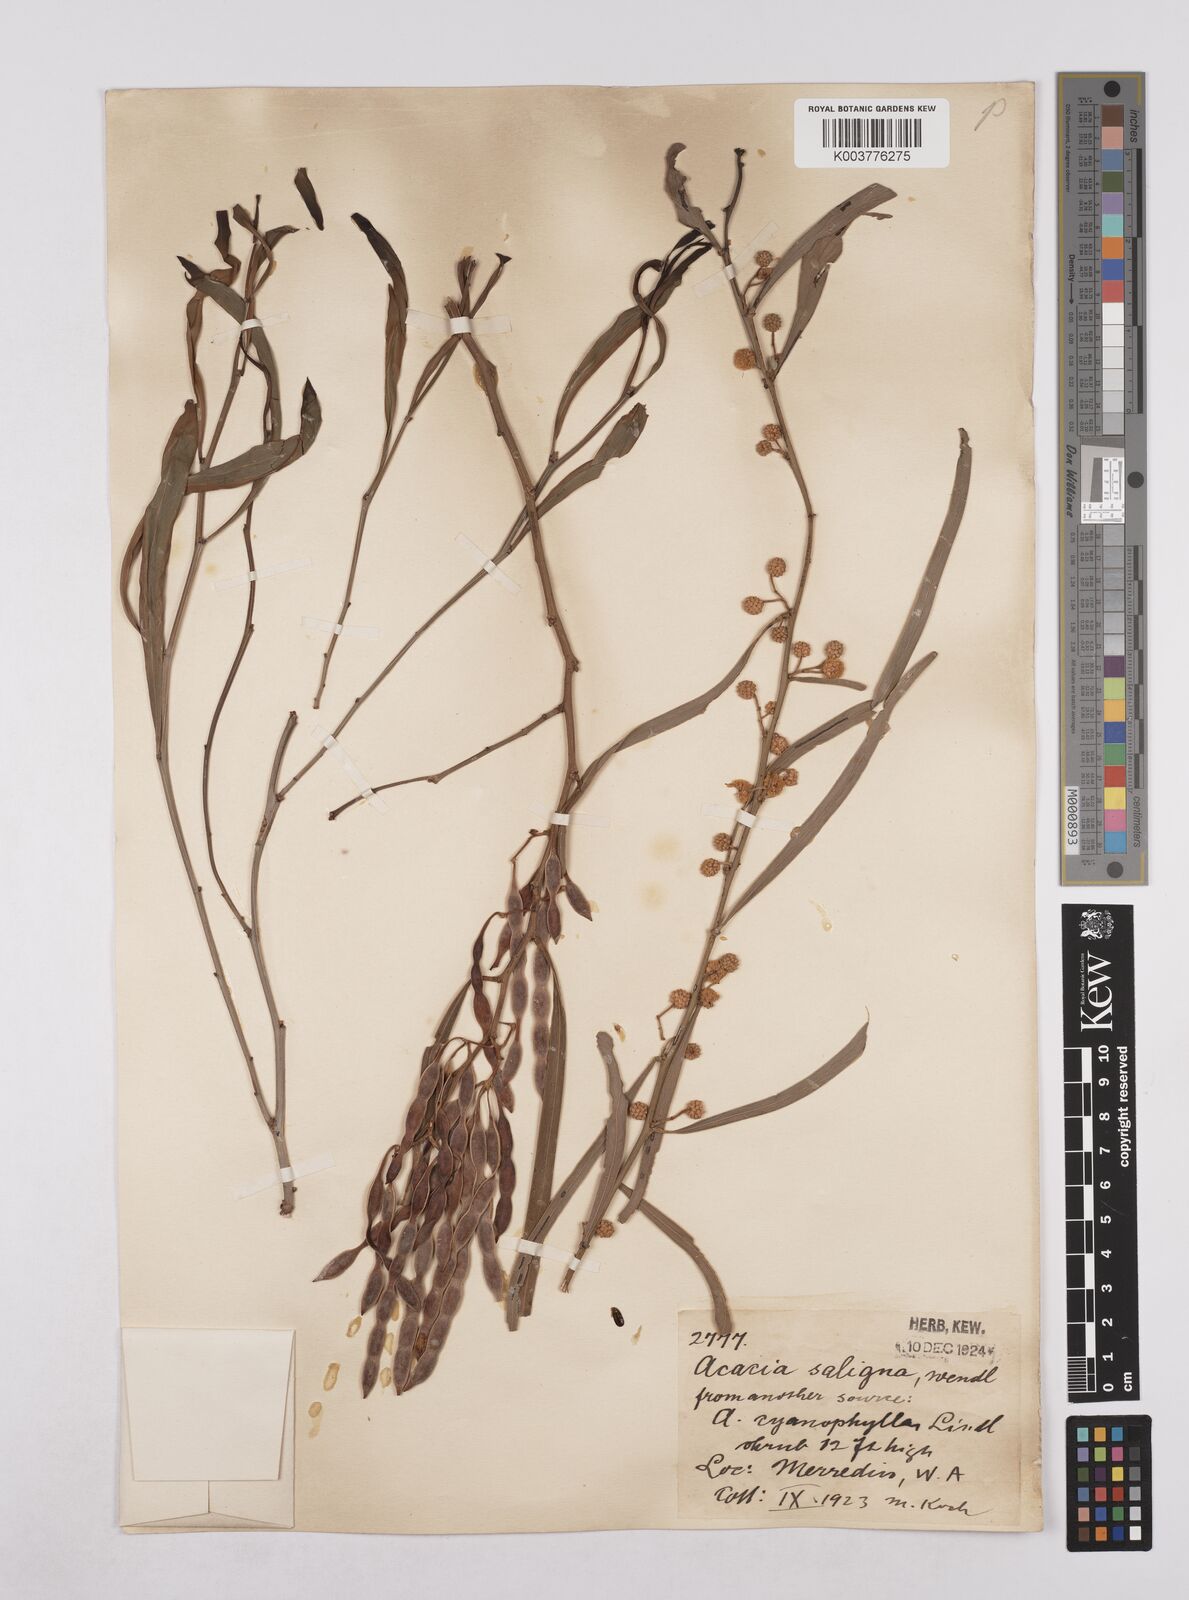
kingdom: Plantae
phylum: Tracheophyta
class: Magnoliopsida
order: Fabales
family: Fabaceae
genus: Acacia
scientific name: Acacia saligna
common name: Orange wattle
